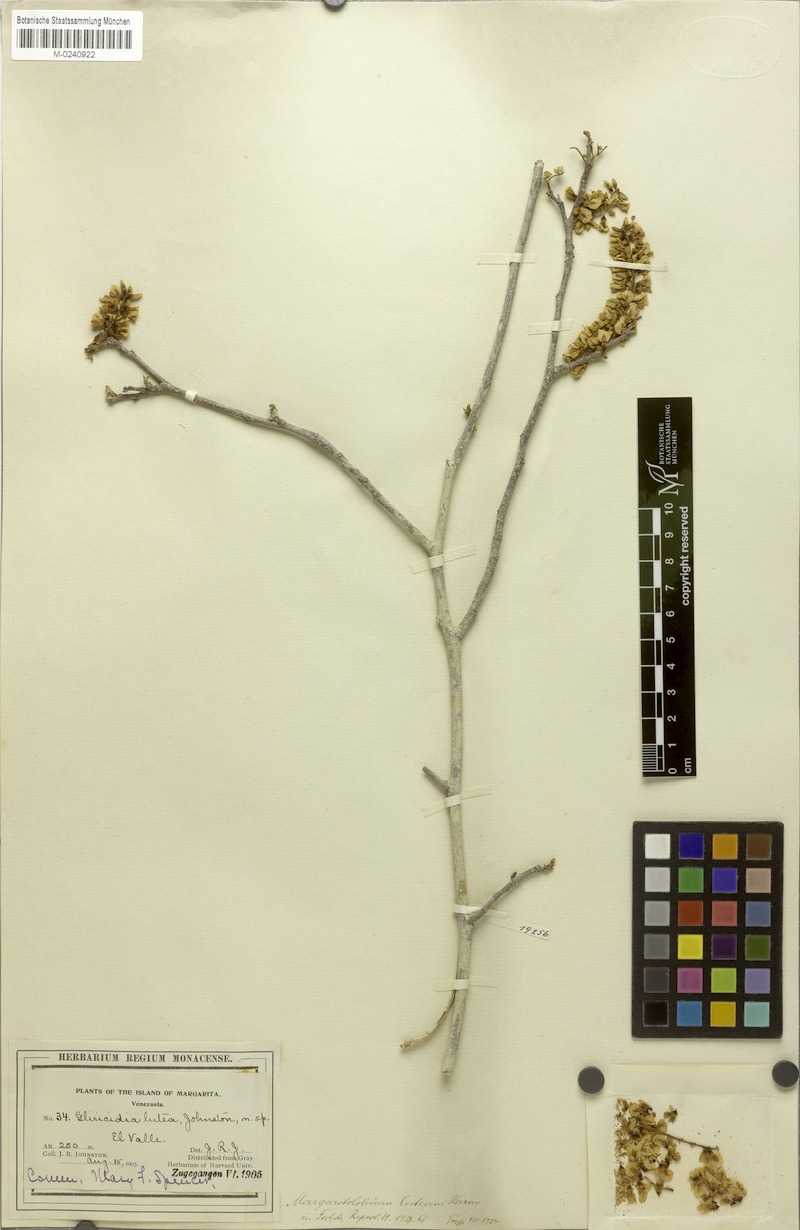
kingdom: Plantae
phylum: Tracheophyta
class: Magnoliopsida
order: Fabales
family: Fabaceae
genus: Muellera
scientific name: Muellera lutea
